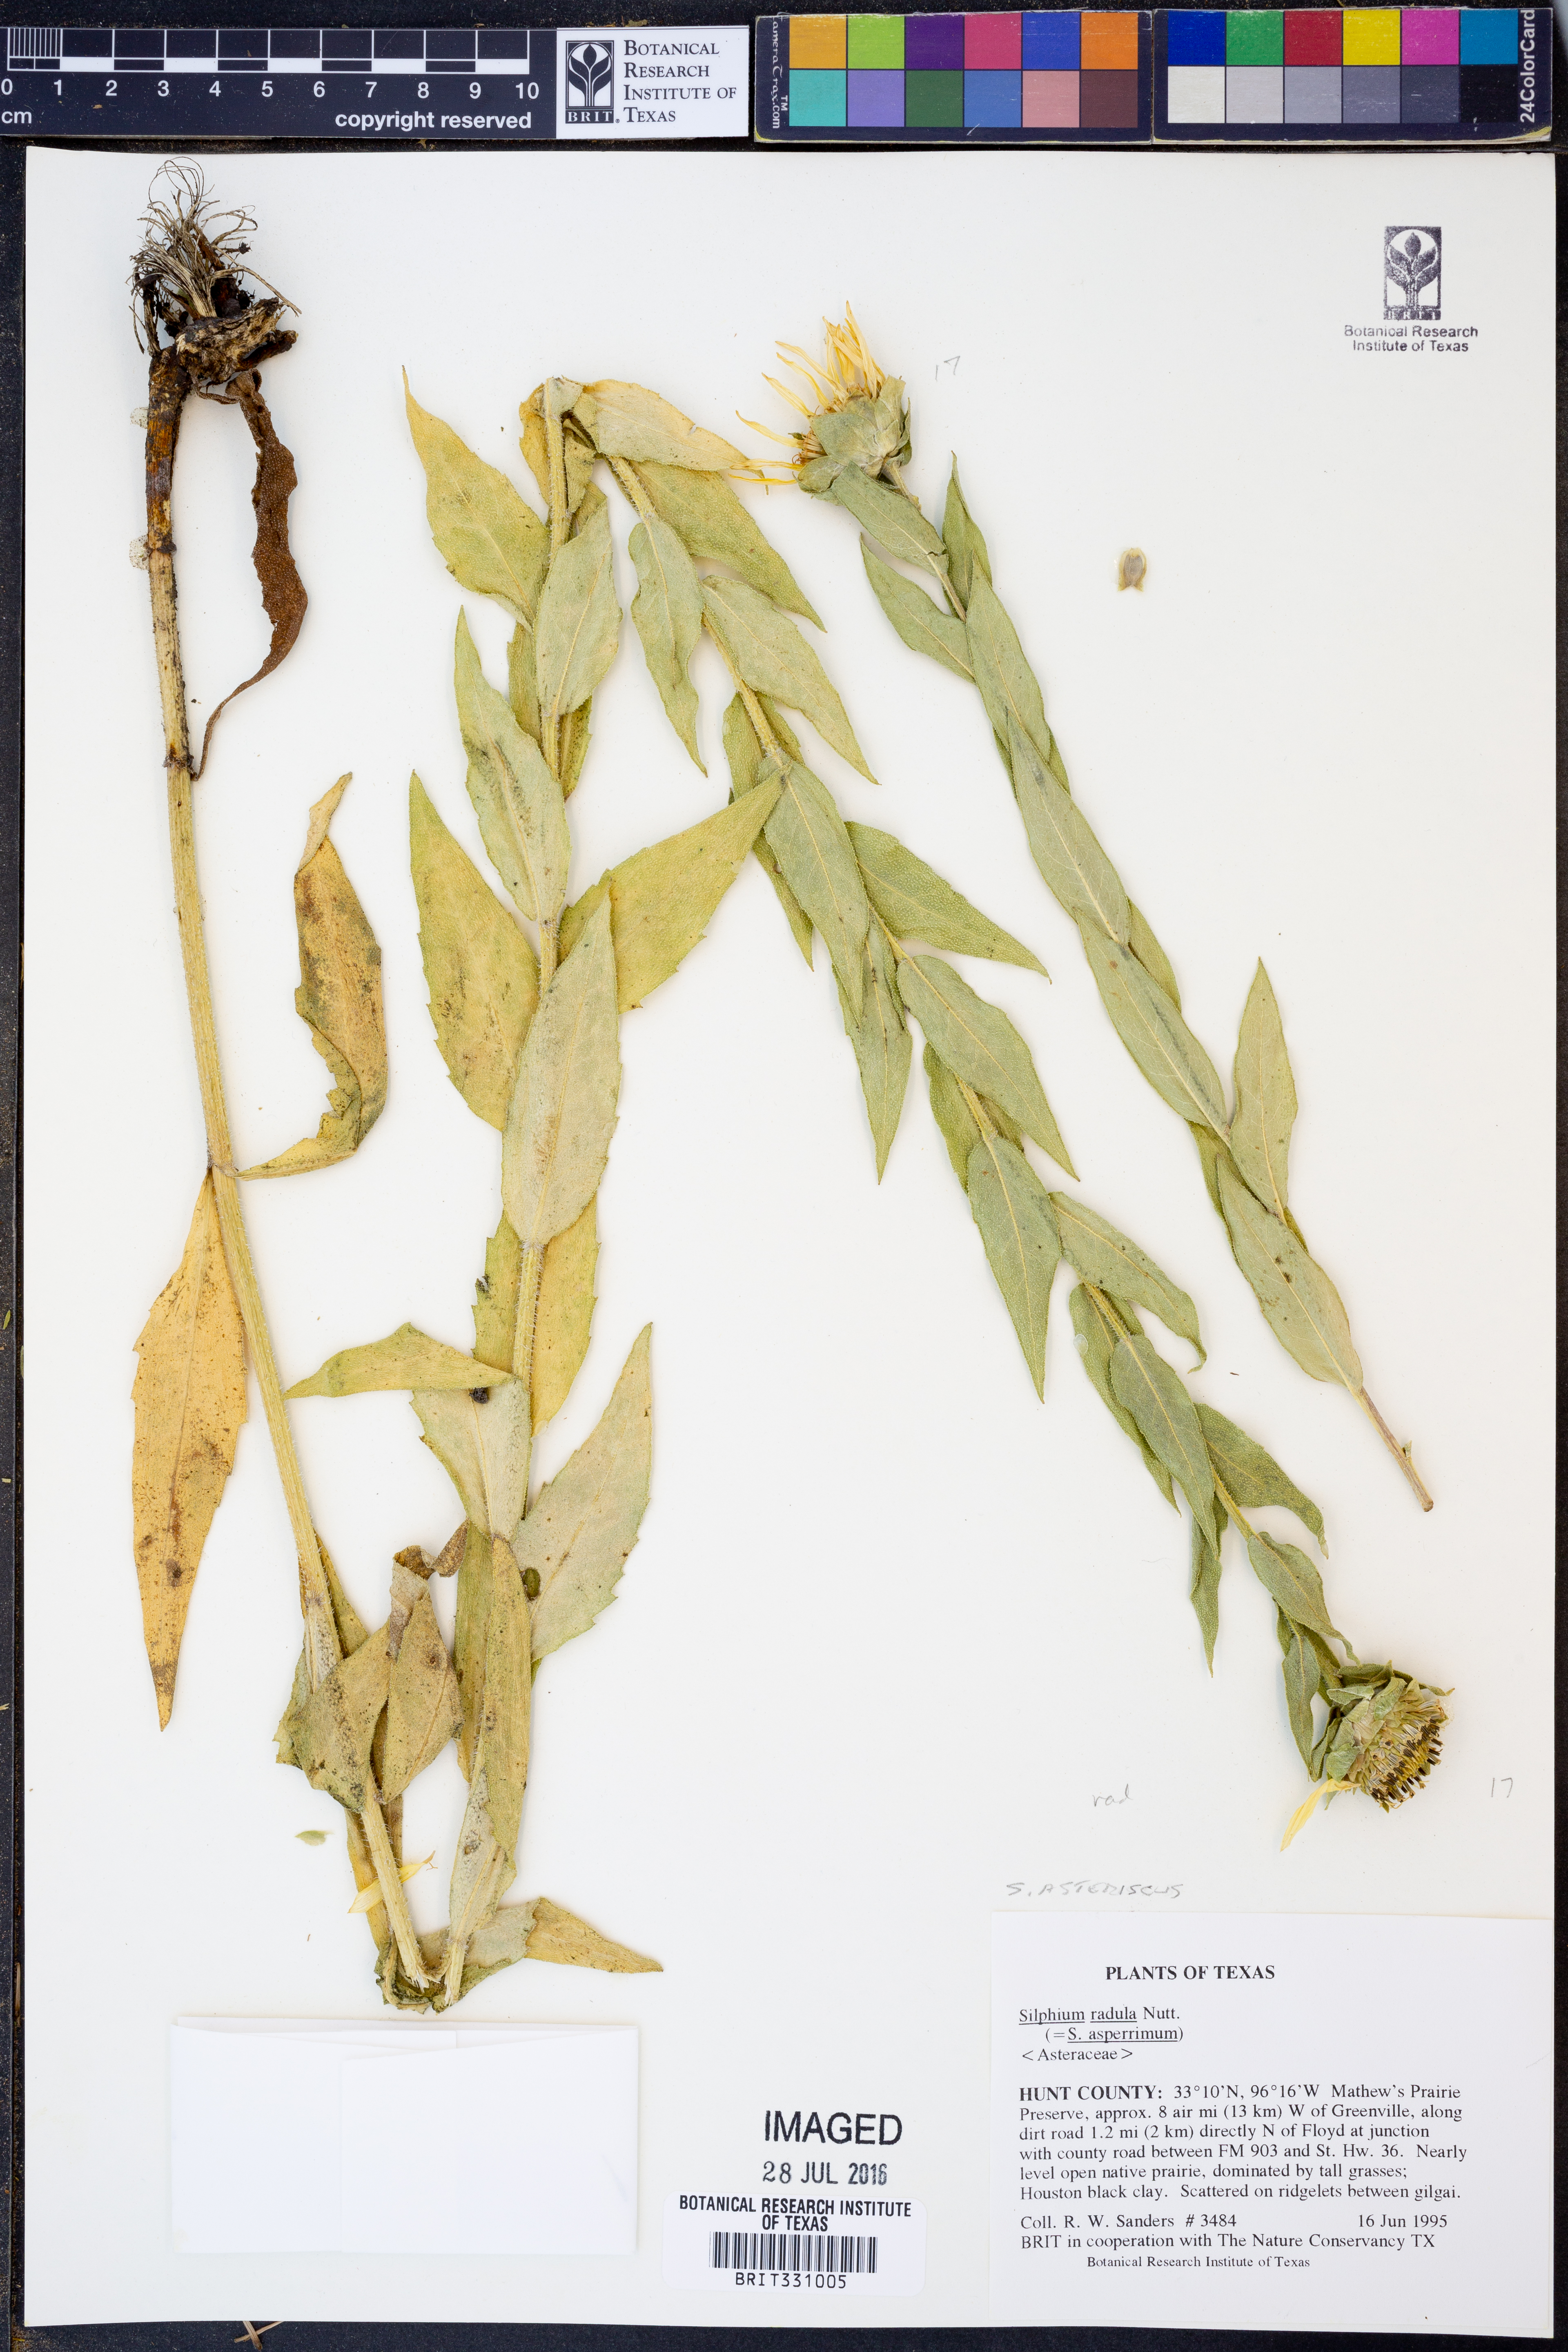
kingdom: Plantae
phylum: Tracheophyta
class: Magnoliopsida
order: Asterales
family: Asteraceae
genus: Silphium
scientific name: Silphium radula
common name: Roughleaf rosinweed
